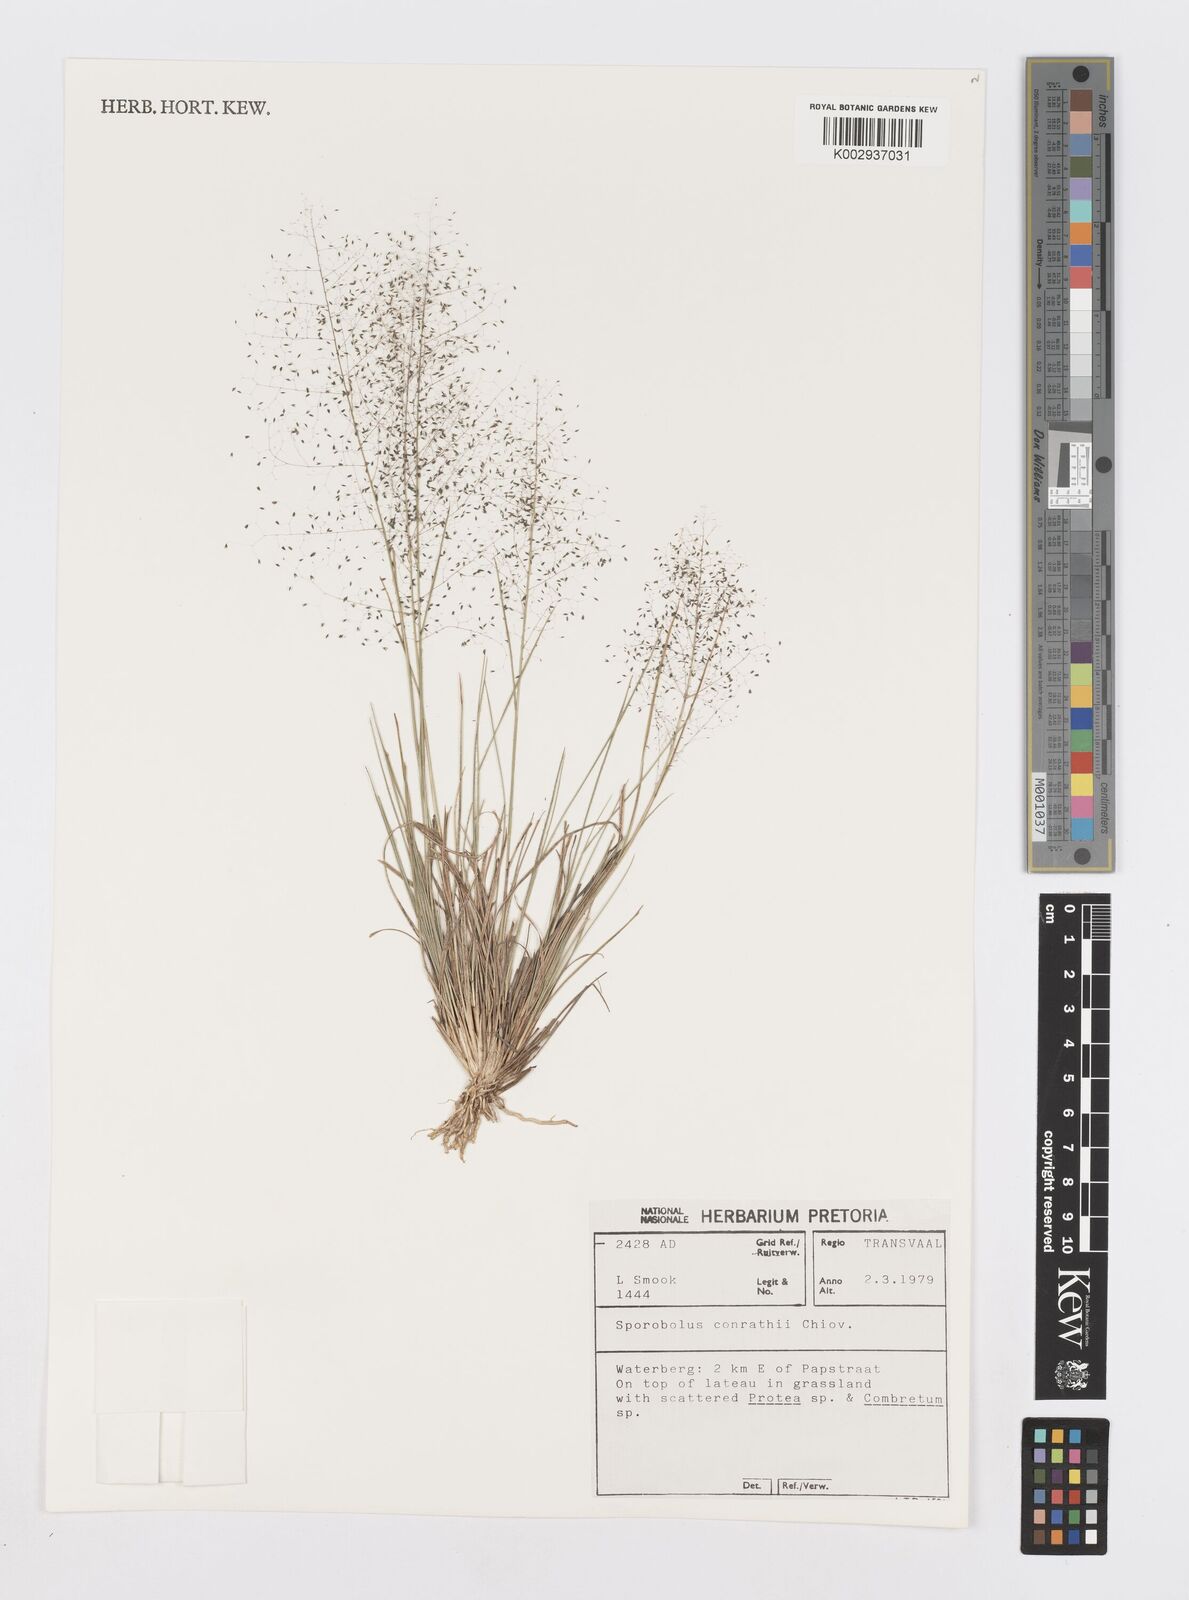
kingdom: Plantae
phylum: Tracheophyta
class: Liliopsida
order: Poales
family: Poaceae
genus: Sporobolus
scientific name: Sporobolus welwitschii
